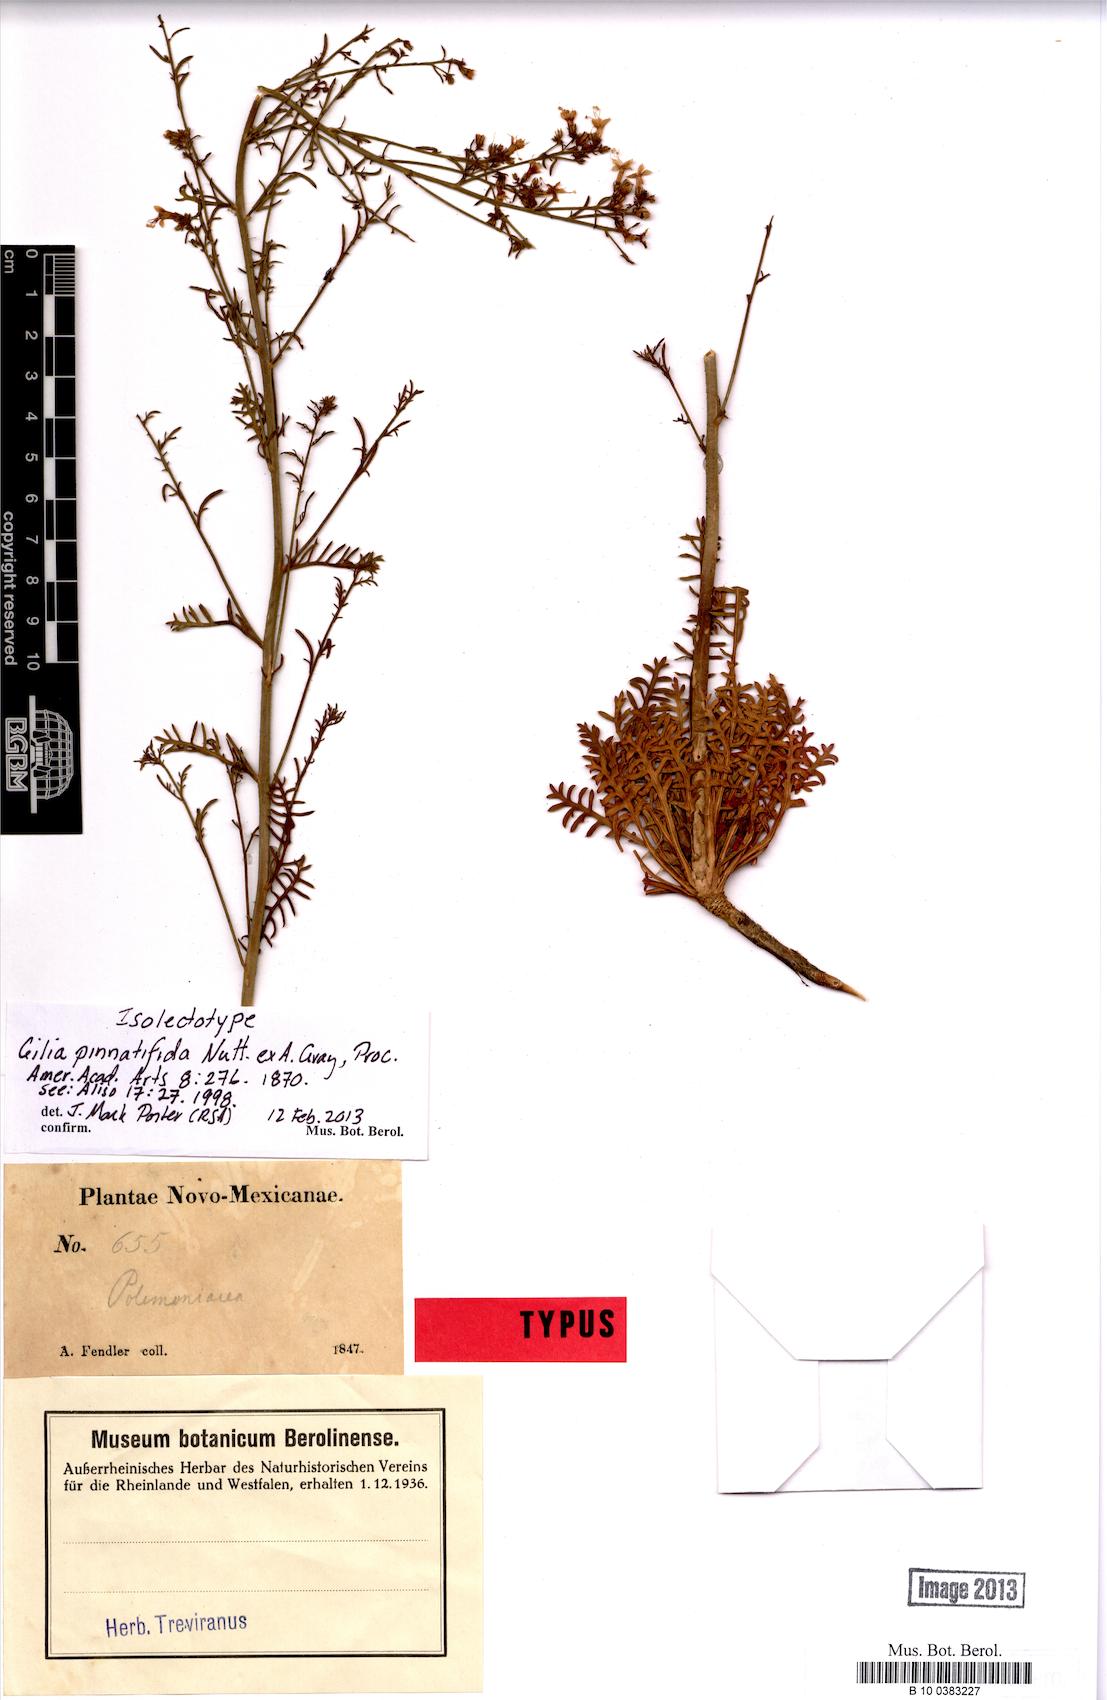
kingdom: Plantae
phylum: Tracheophyta
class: Magnoliopsida
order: Ericales
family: Polemoniaceae
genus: Aliciella
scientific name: Aliciella pinnatifida
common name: Sticky gilia
